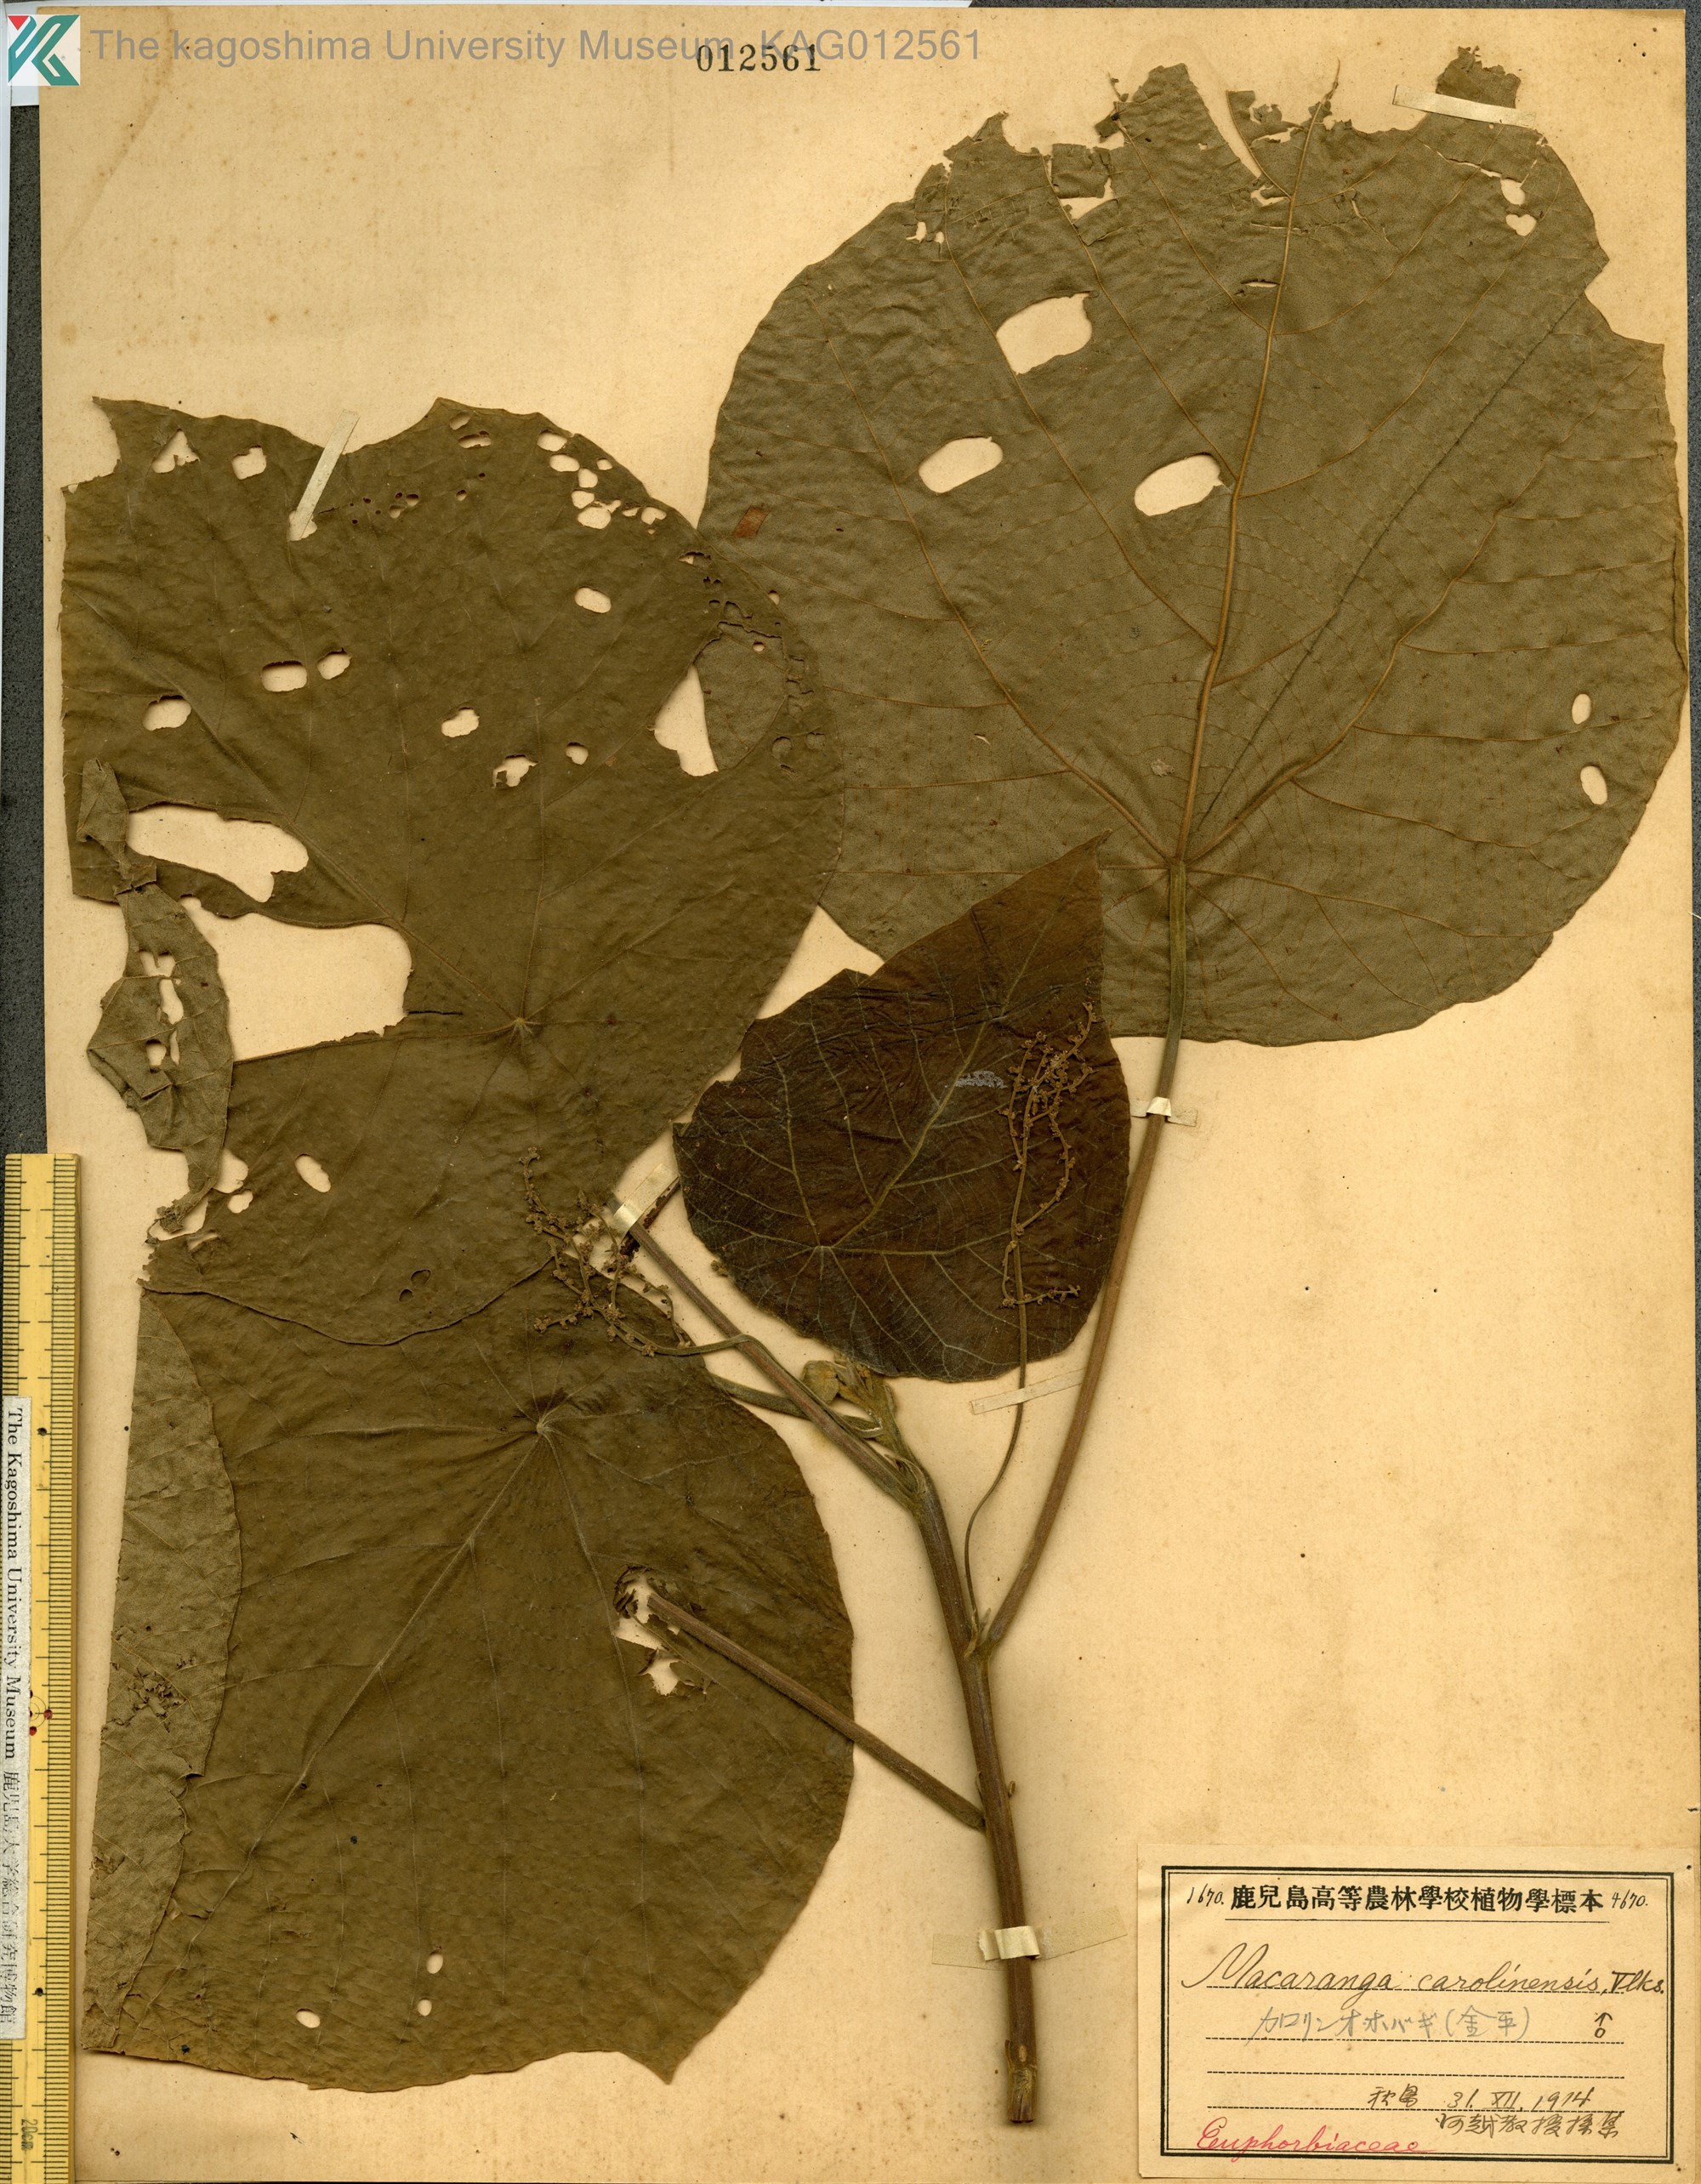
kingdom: Plantae
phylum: Tracheophyta
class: Magnoliopsida
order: Malpighiales
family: Euphorbiaceae
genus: Macaranga
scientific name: Macaranga carolinensis
